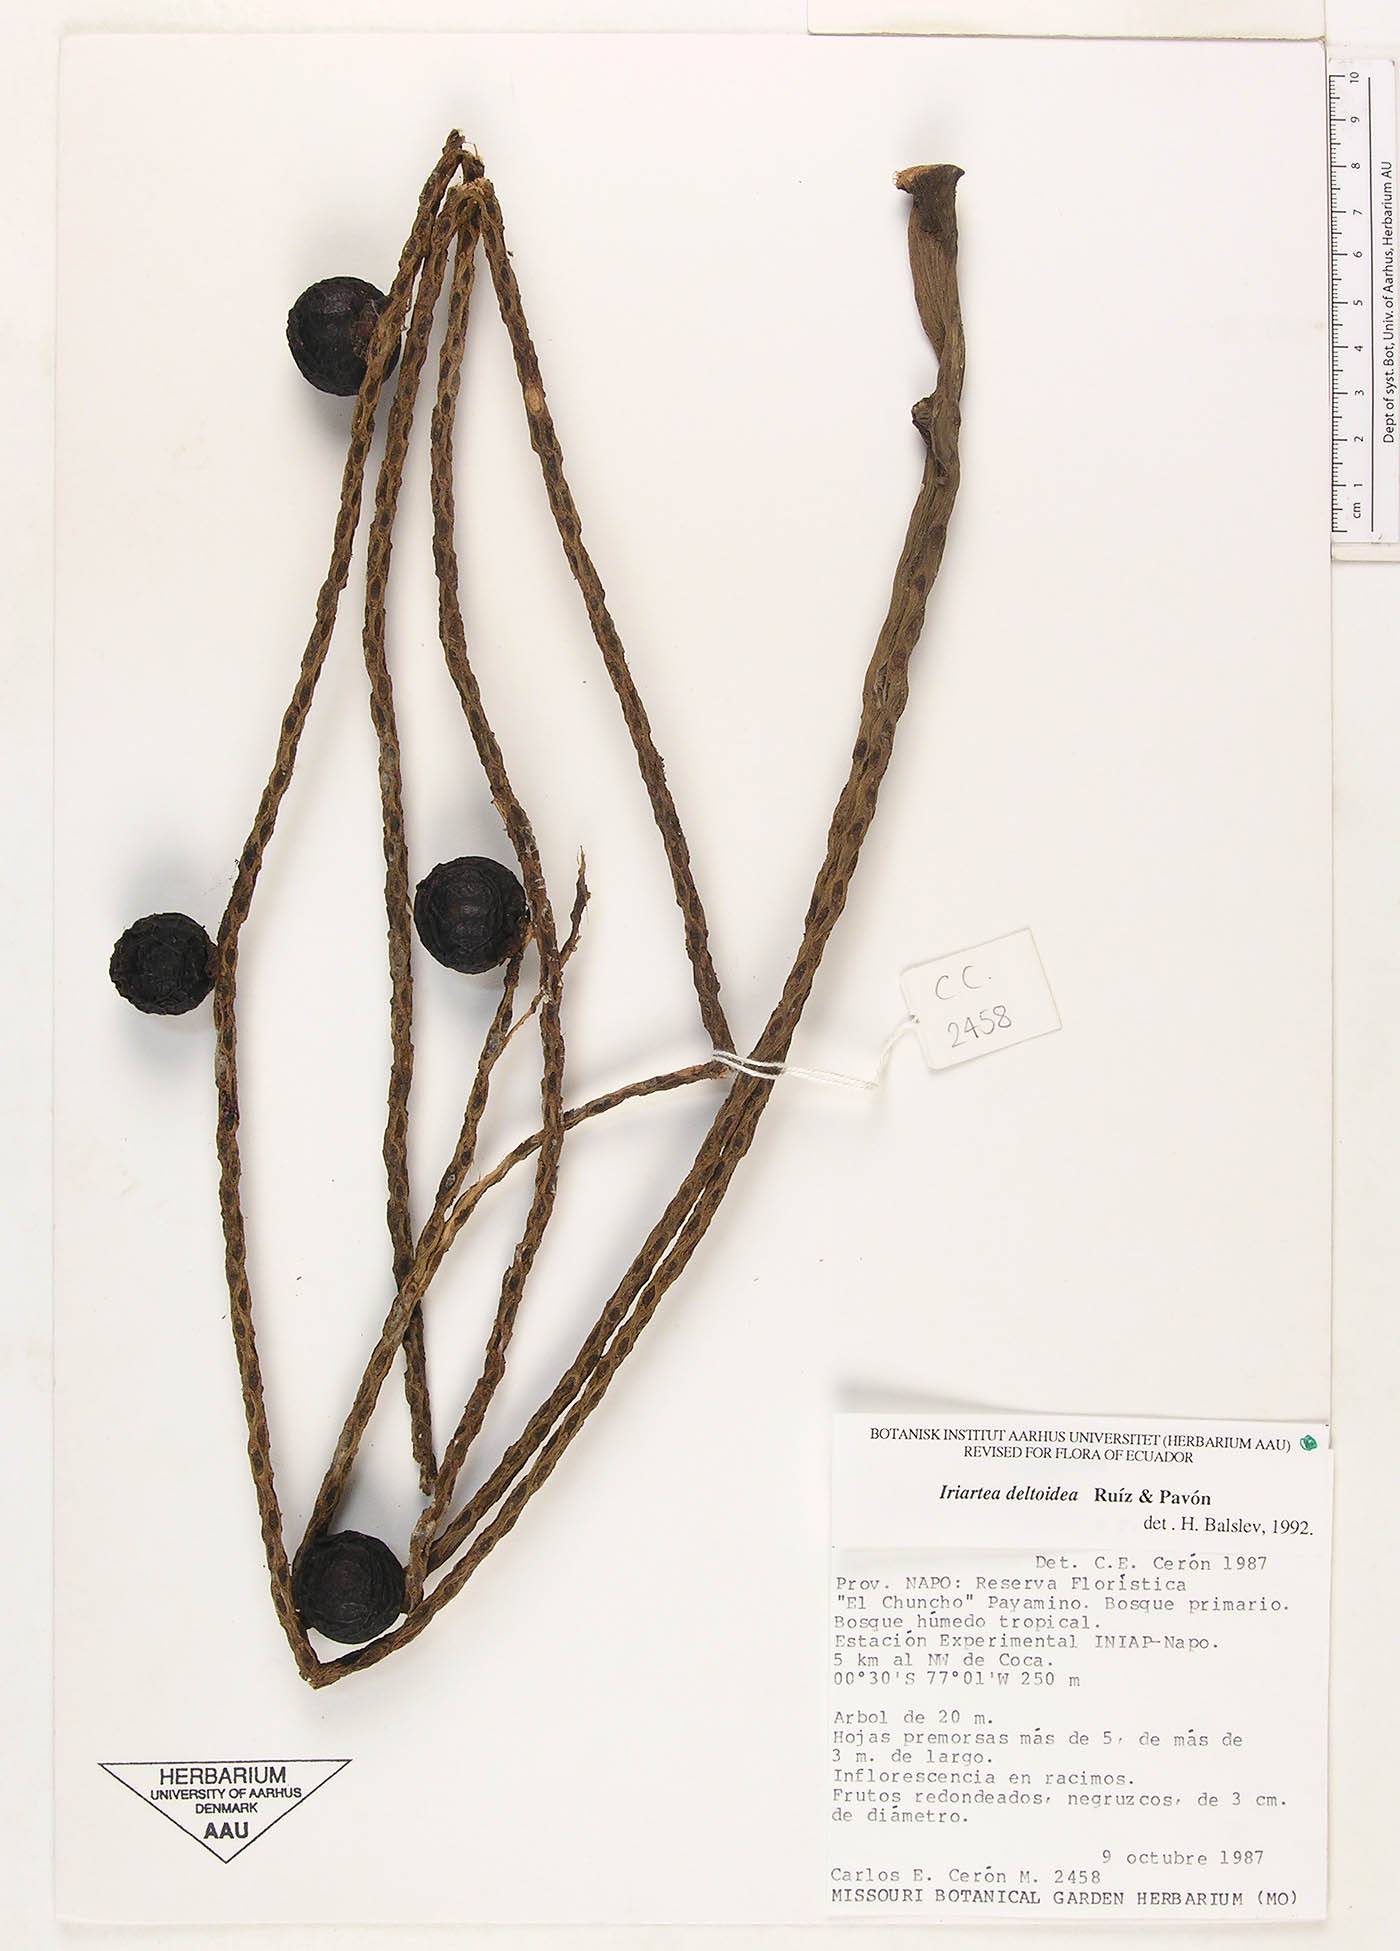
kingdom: Plantae
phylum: Tracheophyta
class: Liliopsida
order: Arecales
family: Arecaceae
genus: Iriartea
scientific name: Iriartea deltoidea
